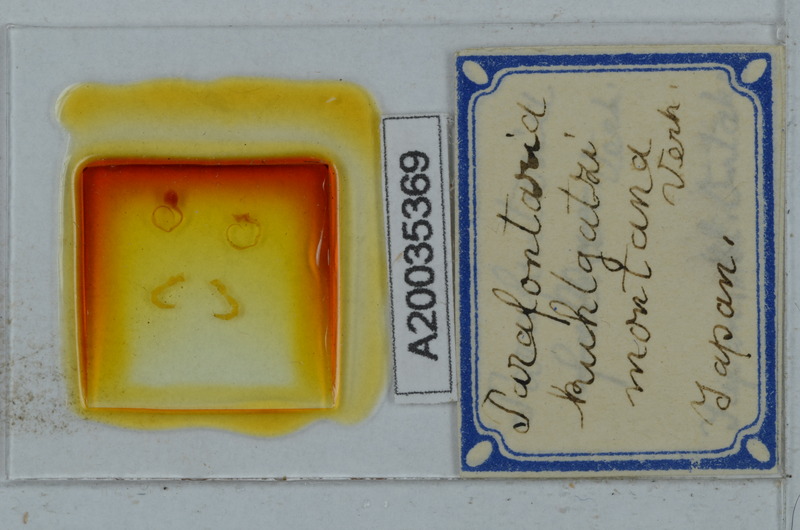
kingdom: Animalia
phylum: Arthropoda
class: Diplopoda
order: Polydesmida
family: Xystodesmidae
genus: Parafontaria
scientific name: Parafontaria
